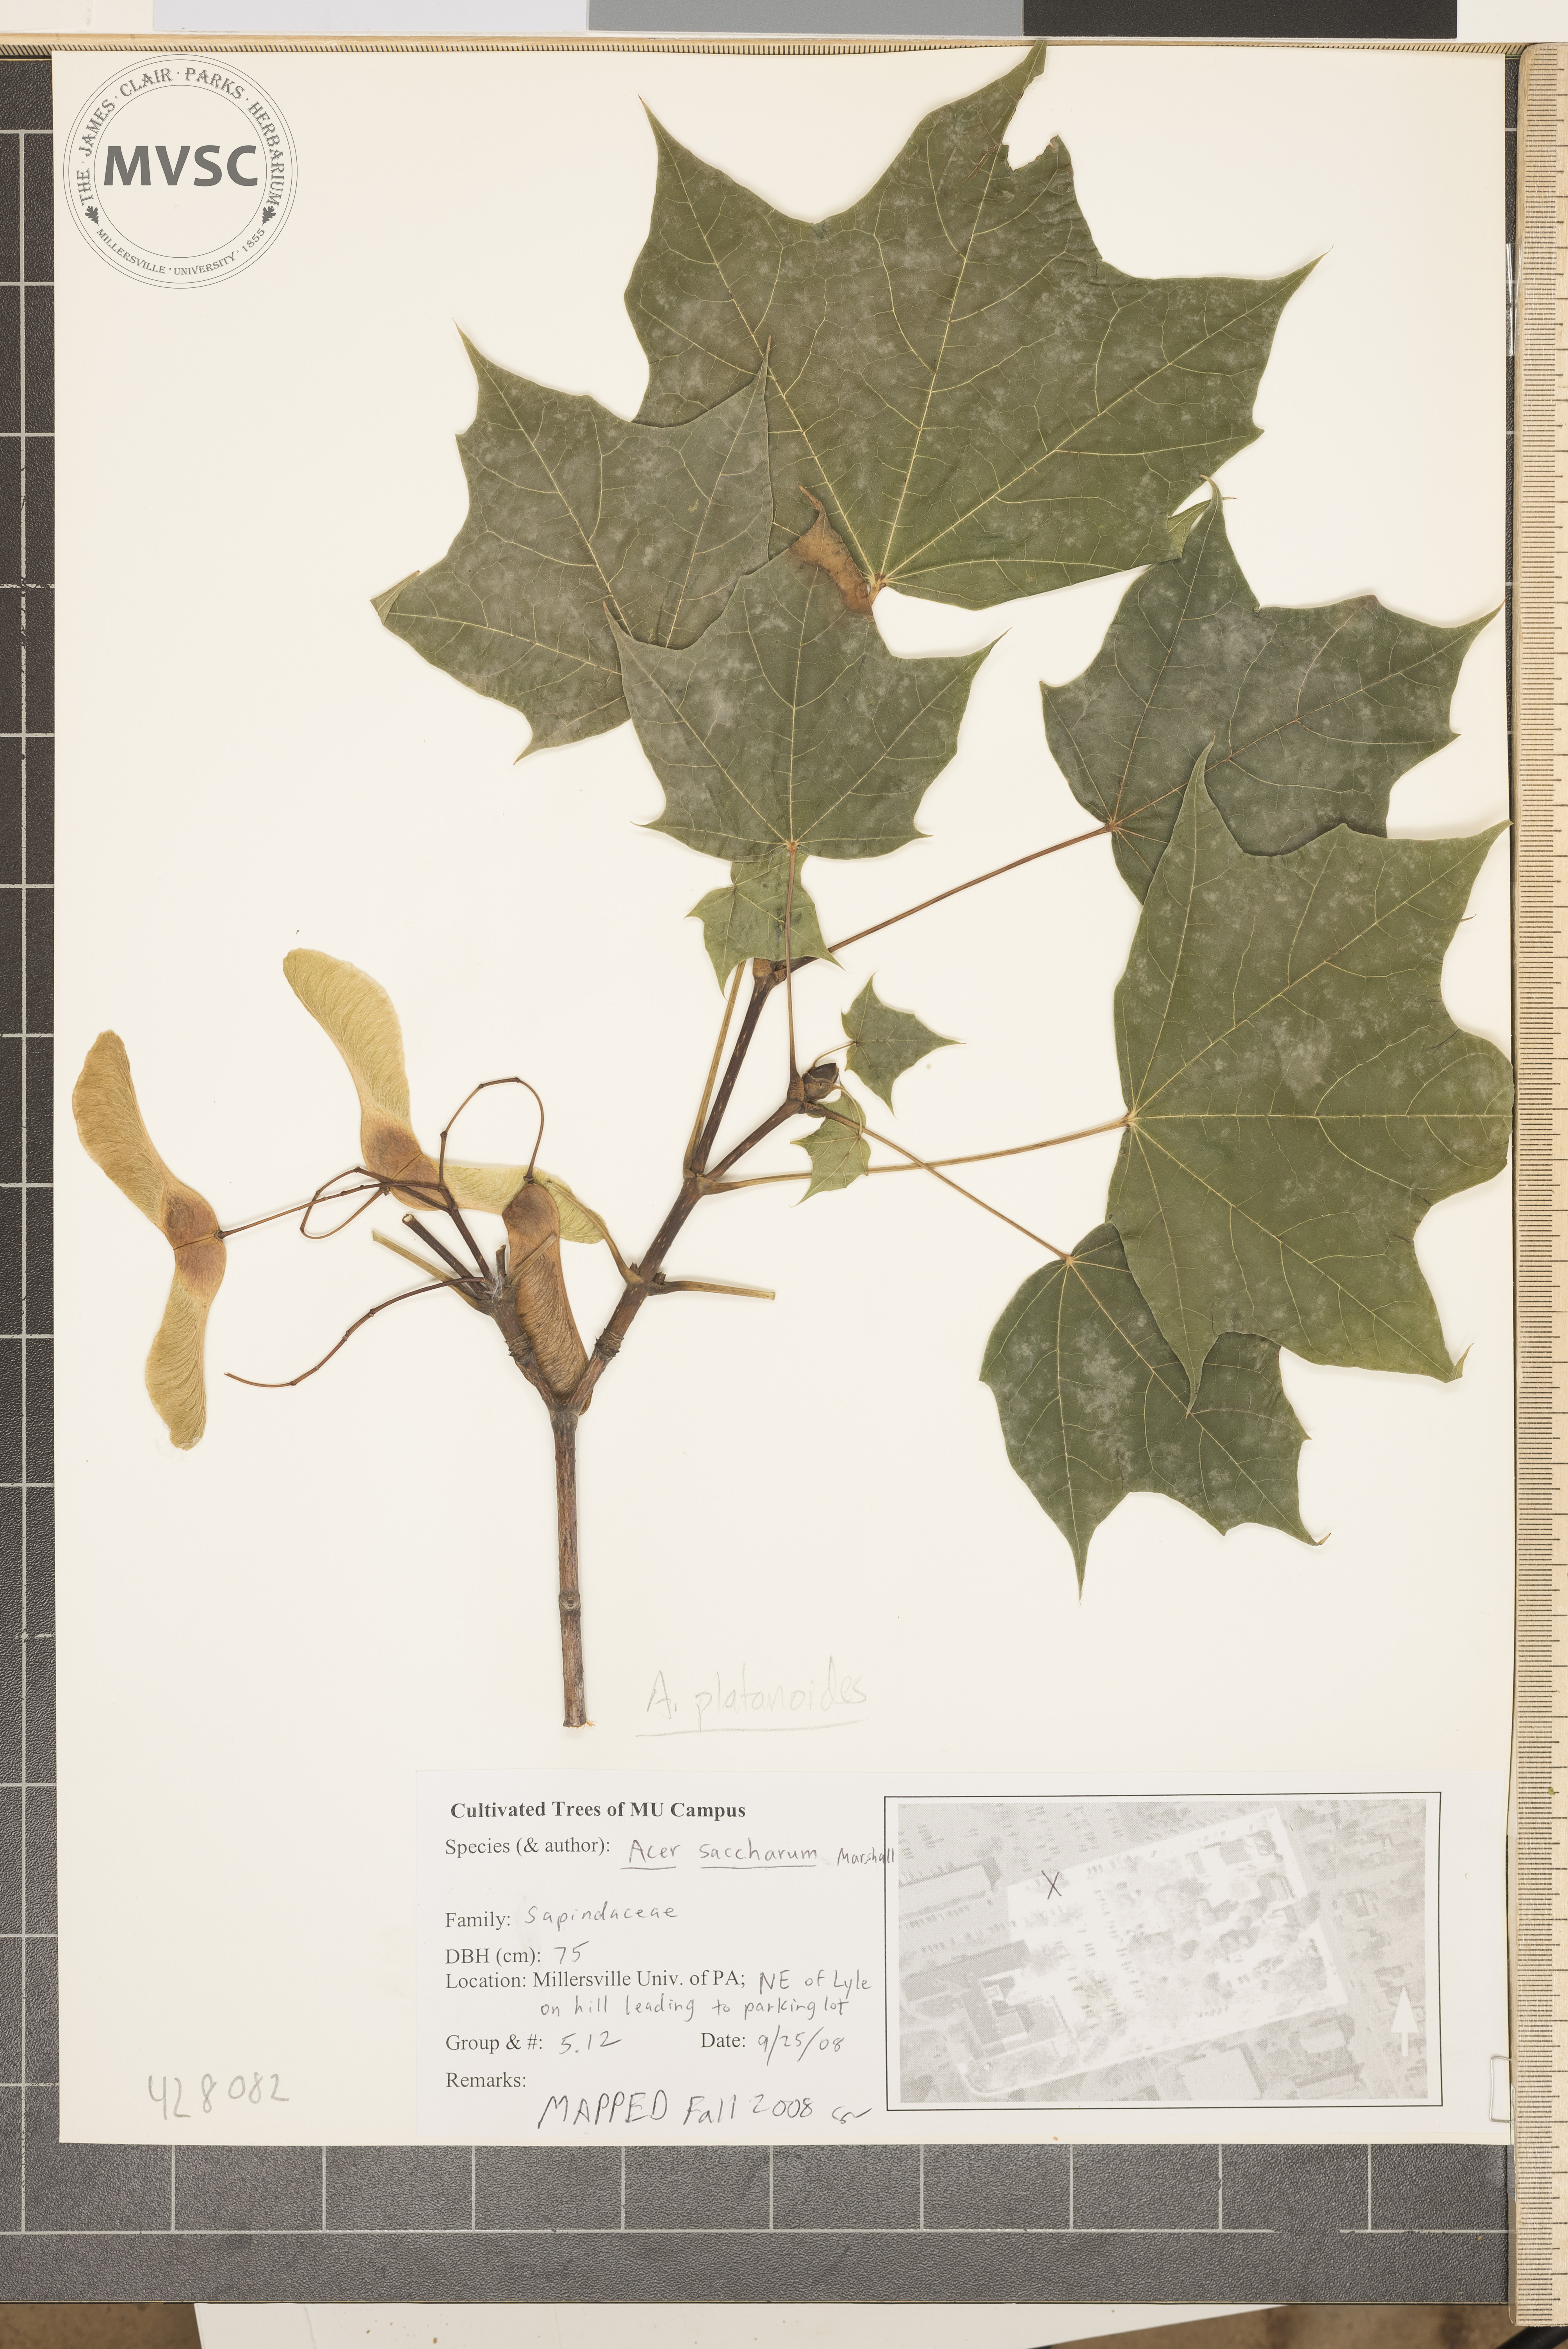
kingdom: Plantae
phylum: Tracheophyta
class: Magnoliopsida
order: Sapindales
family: Sapindaceae
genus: Acer
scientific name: Acer platanoides
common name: Norway maple
